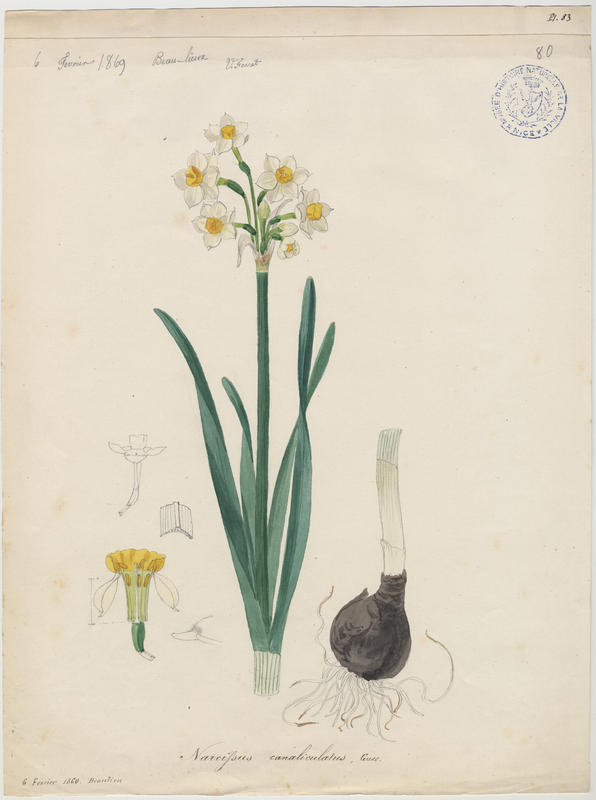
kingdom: Plantae
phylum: Tracheophyta
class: Liliopsida
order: Asparagales
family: Amaryllidaceae
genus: Narcissus
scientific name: Narcissus tazetta
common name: Bunch-flowered daffodil
